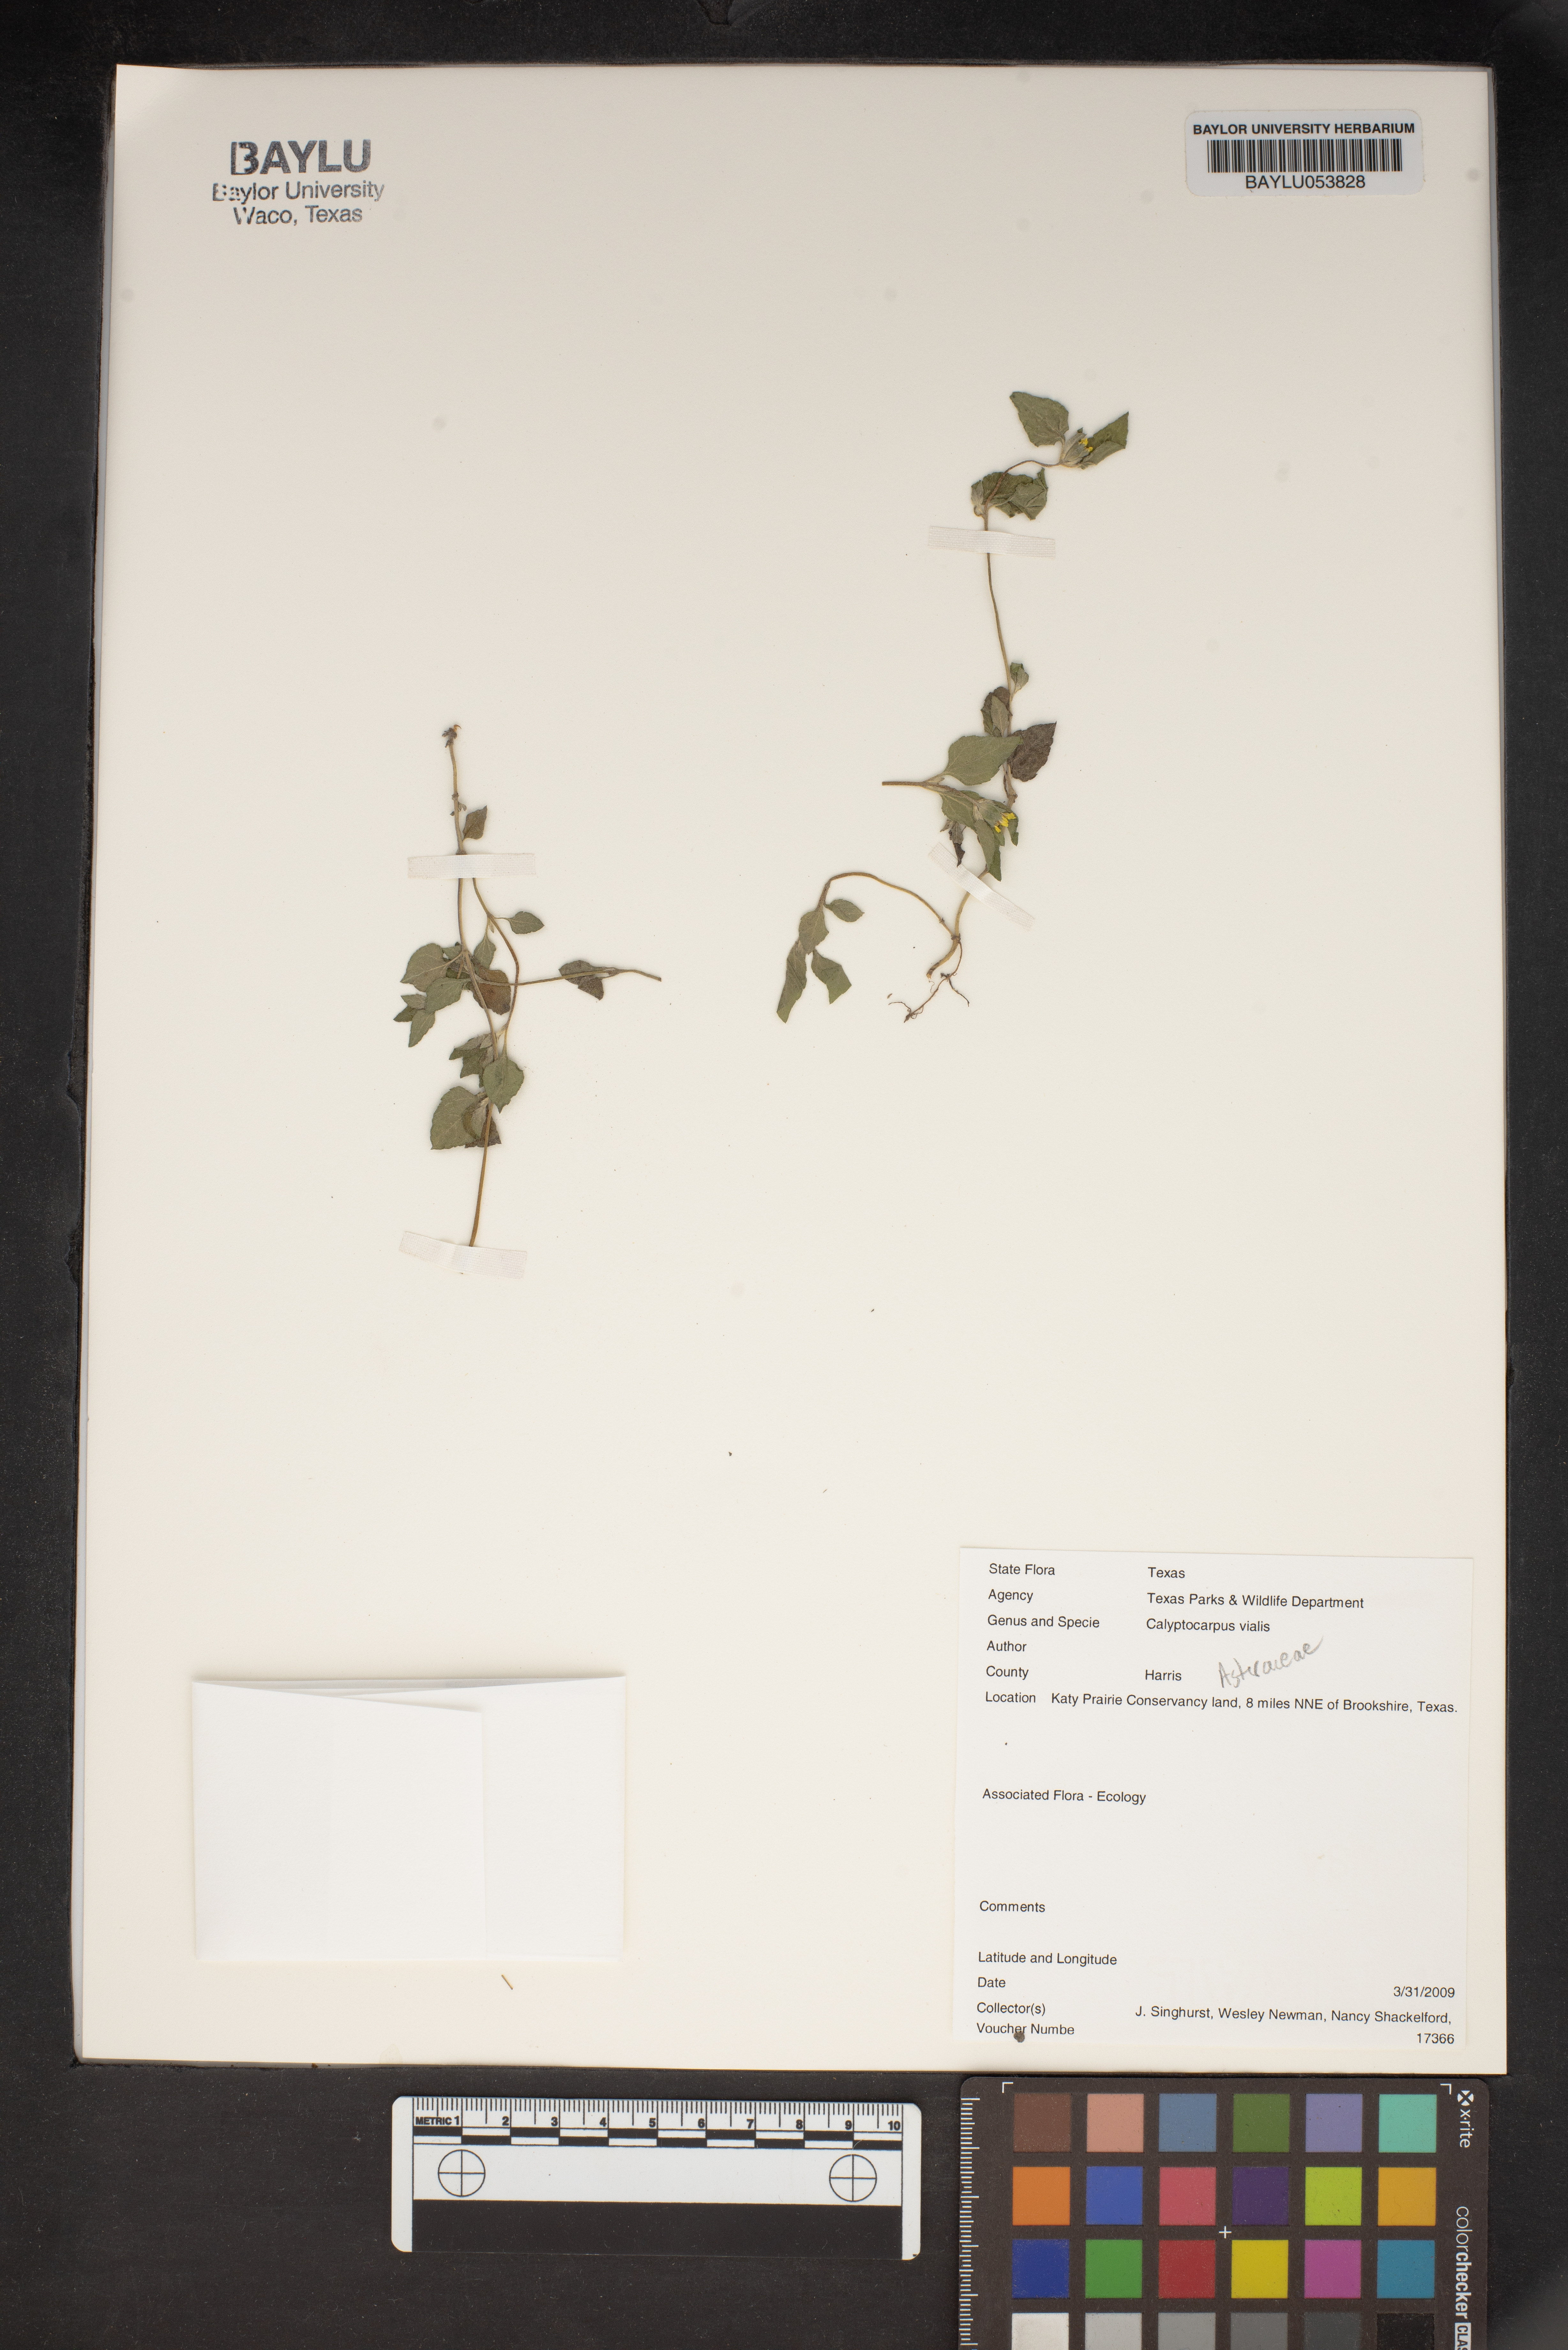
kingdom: Plantae
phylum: Tracheophyta
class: Magnoliopsida
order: Asterales
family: Asteraceae
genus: Calyptocarpus
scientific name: Calyptocarpus vialis
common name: Straggler daisy
